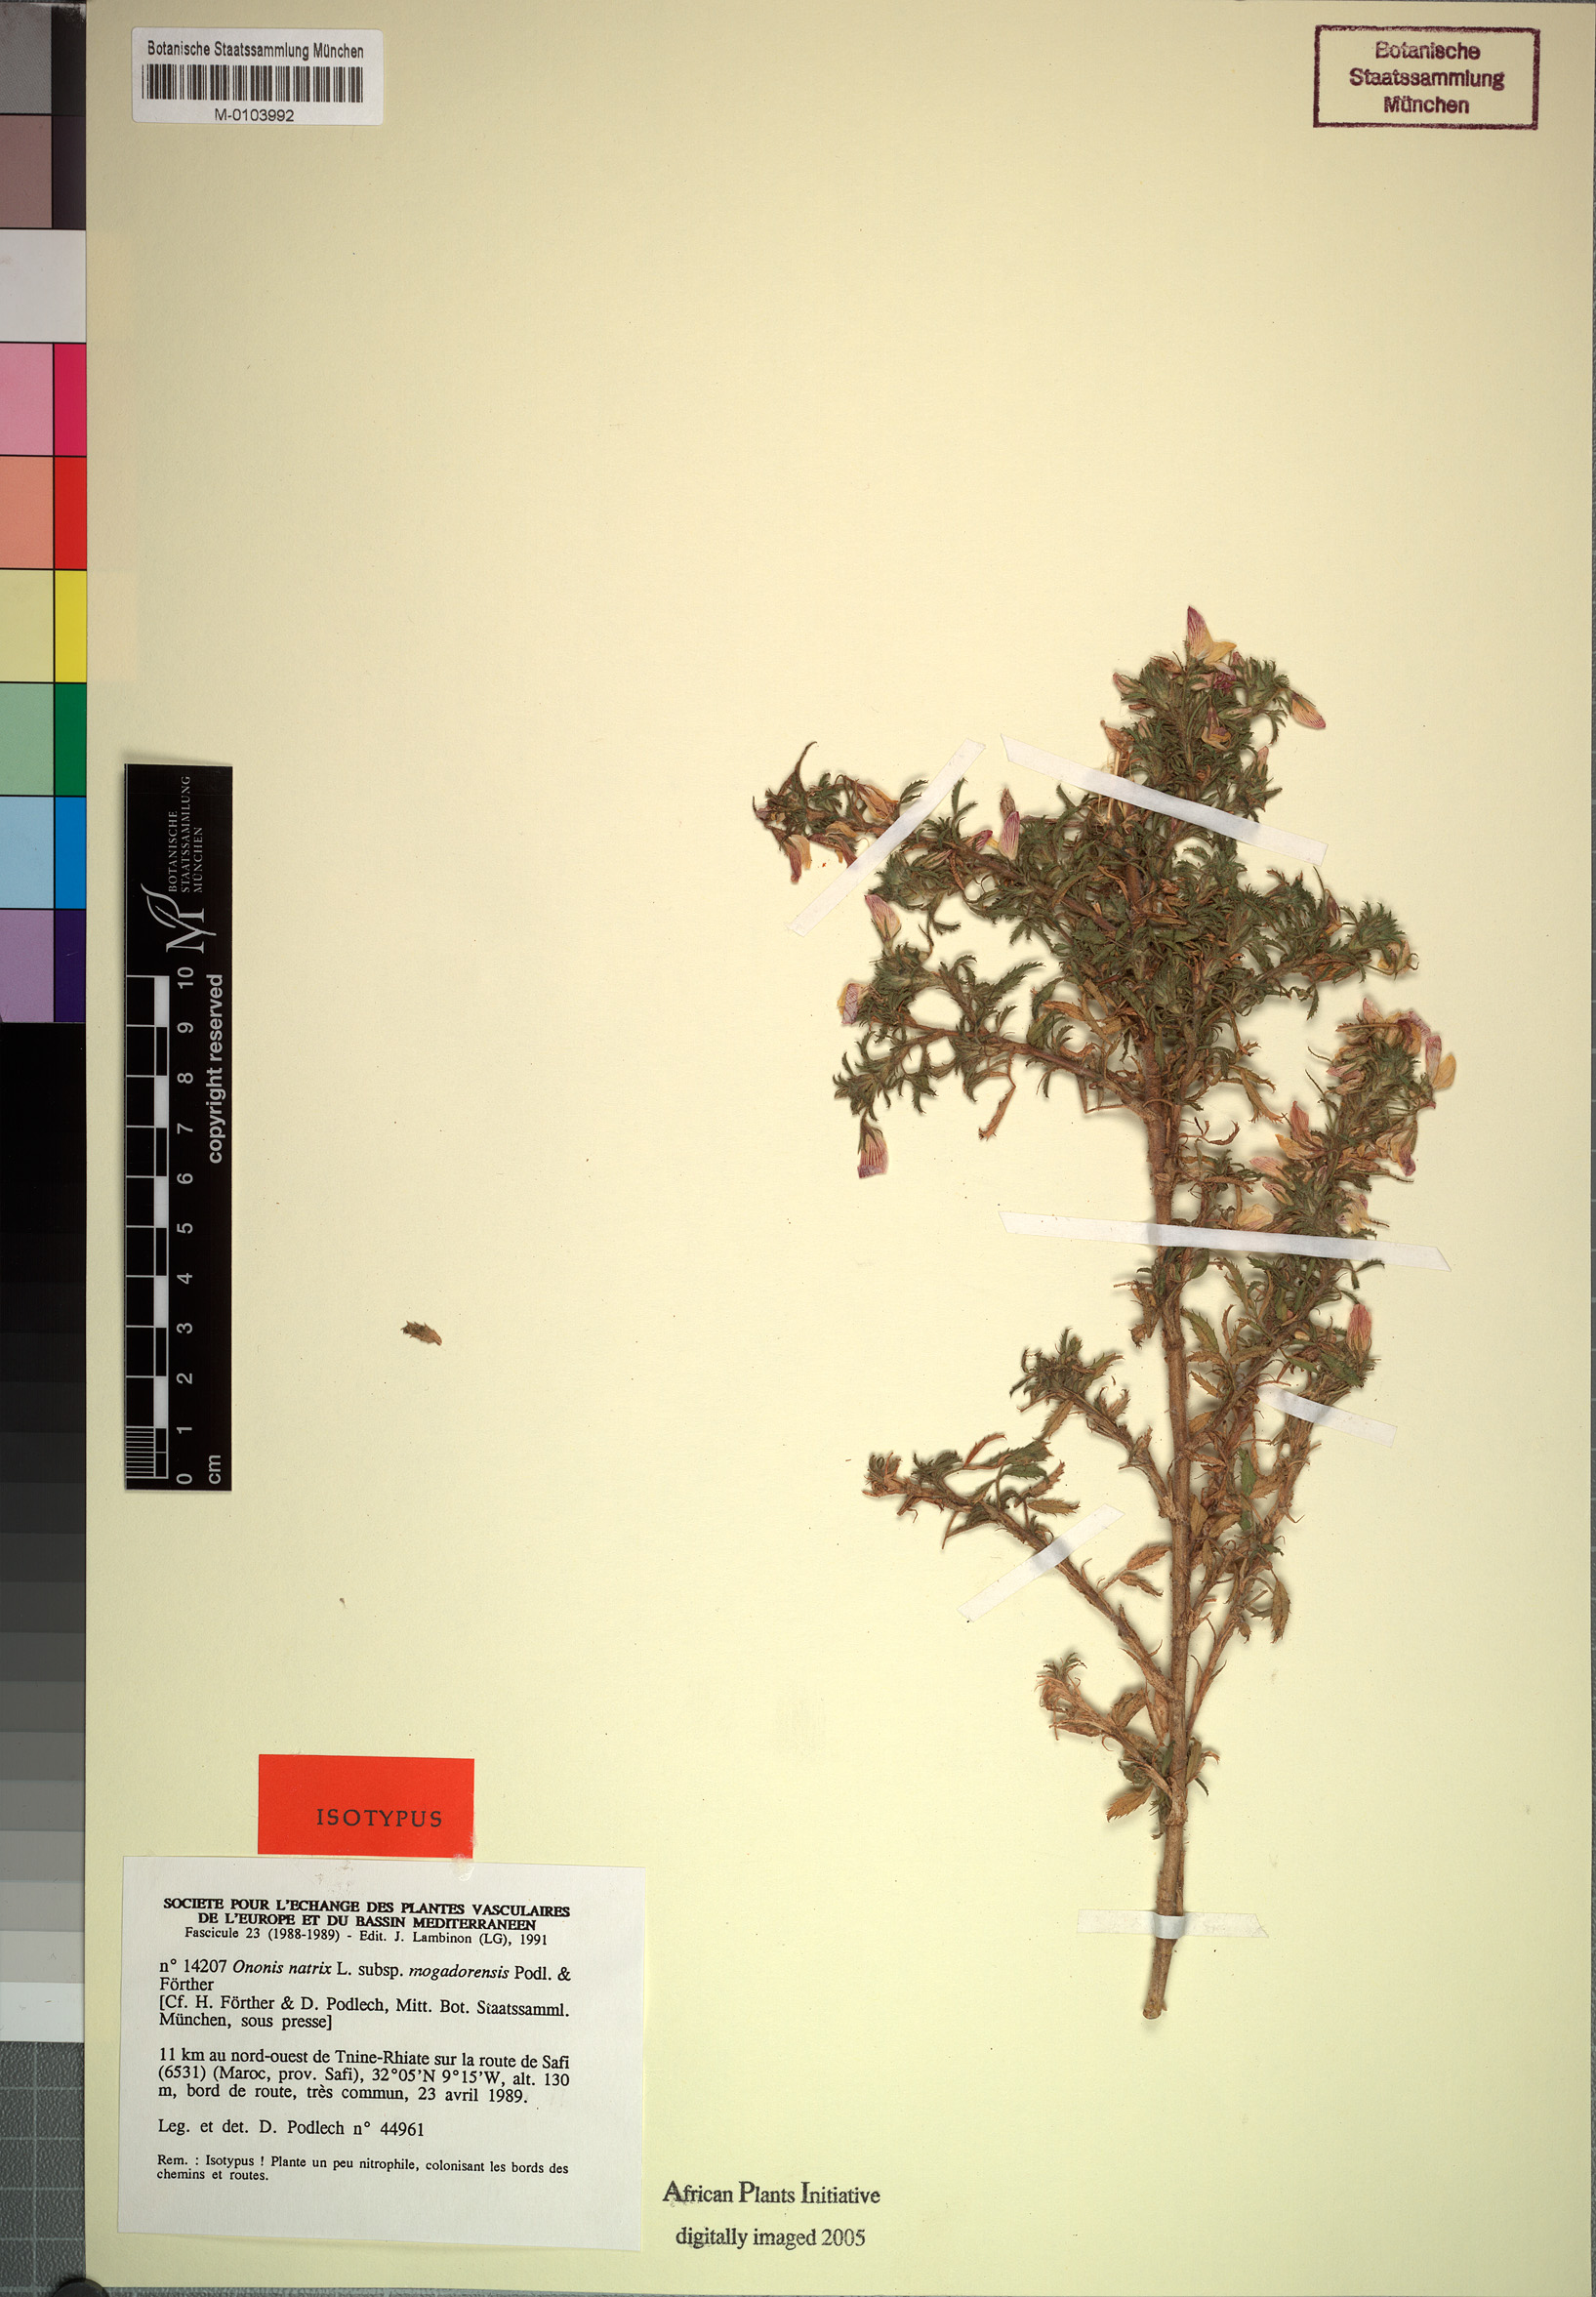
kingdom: Plantae
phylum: Tracheophyta
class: Magnoliopsida
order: Fabales
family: Fabaceae
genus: Ononis
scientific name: Ononis mogadorensis
